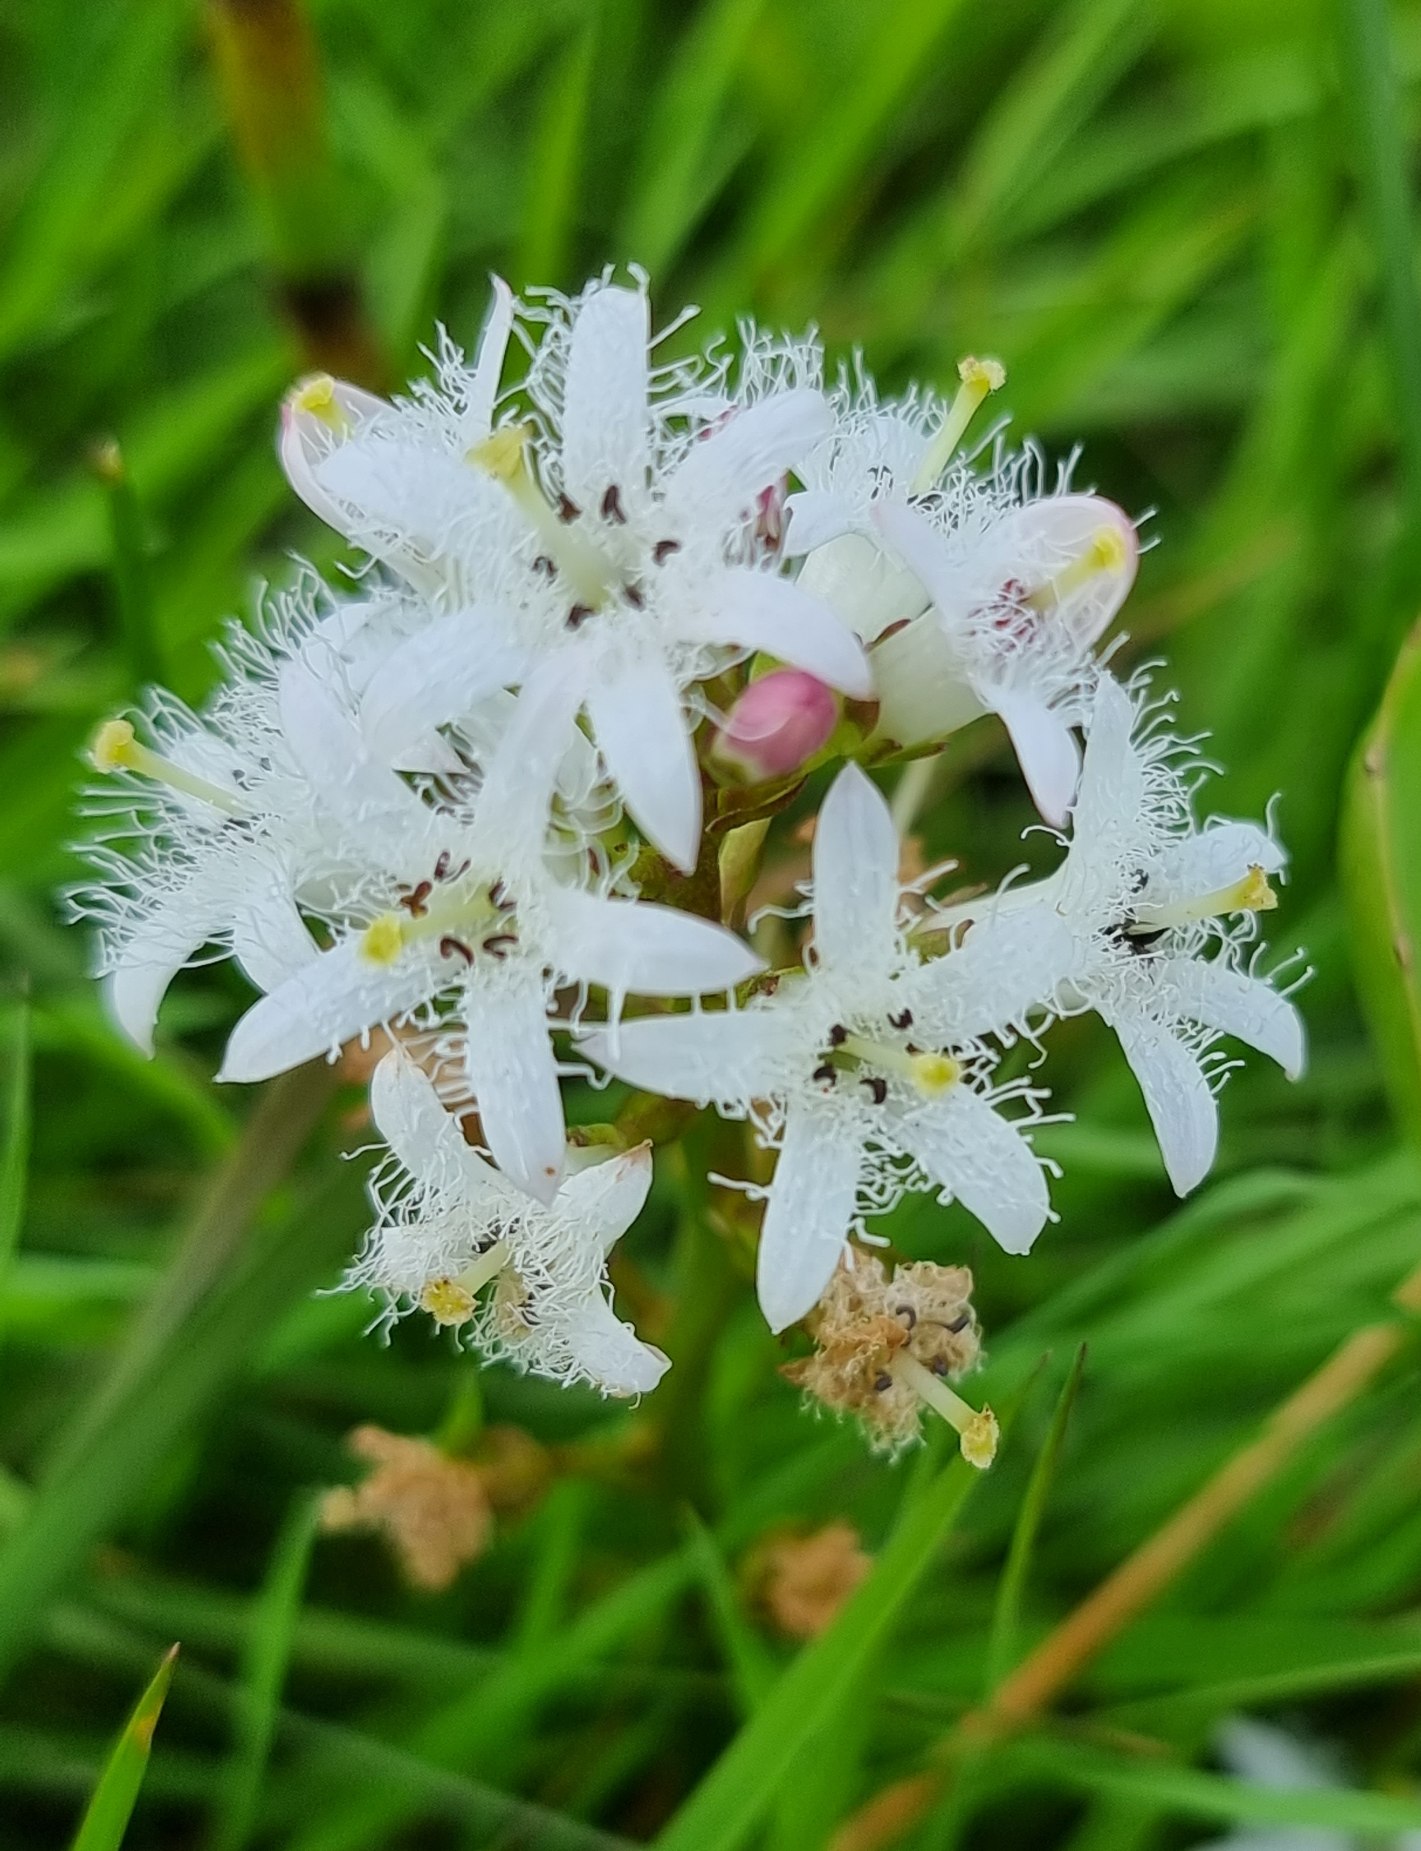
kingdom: Plantae
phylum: Tracheophyta
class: Magnoliopsida
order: Asterales
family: Menyanthaceae
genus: Menyanthes
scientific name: Menyanthes trifoliata
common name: Bukkeblad
